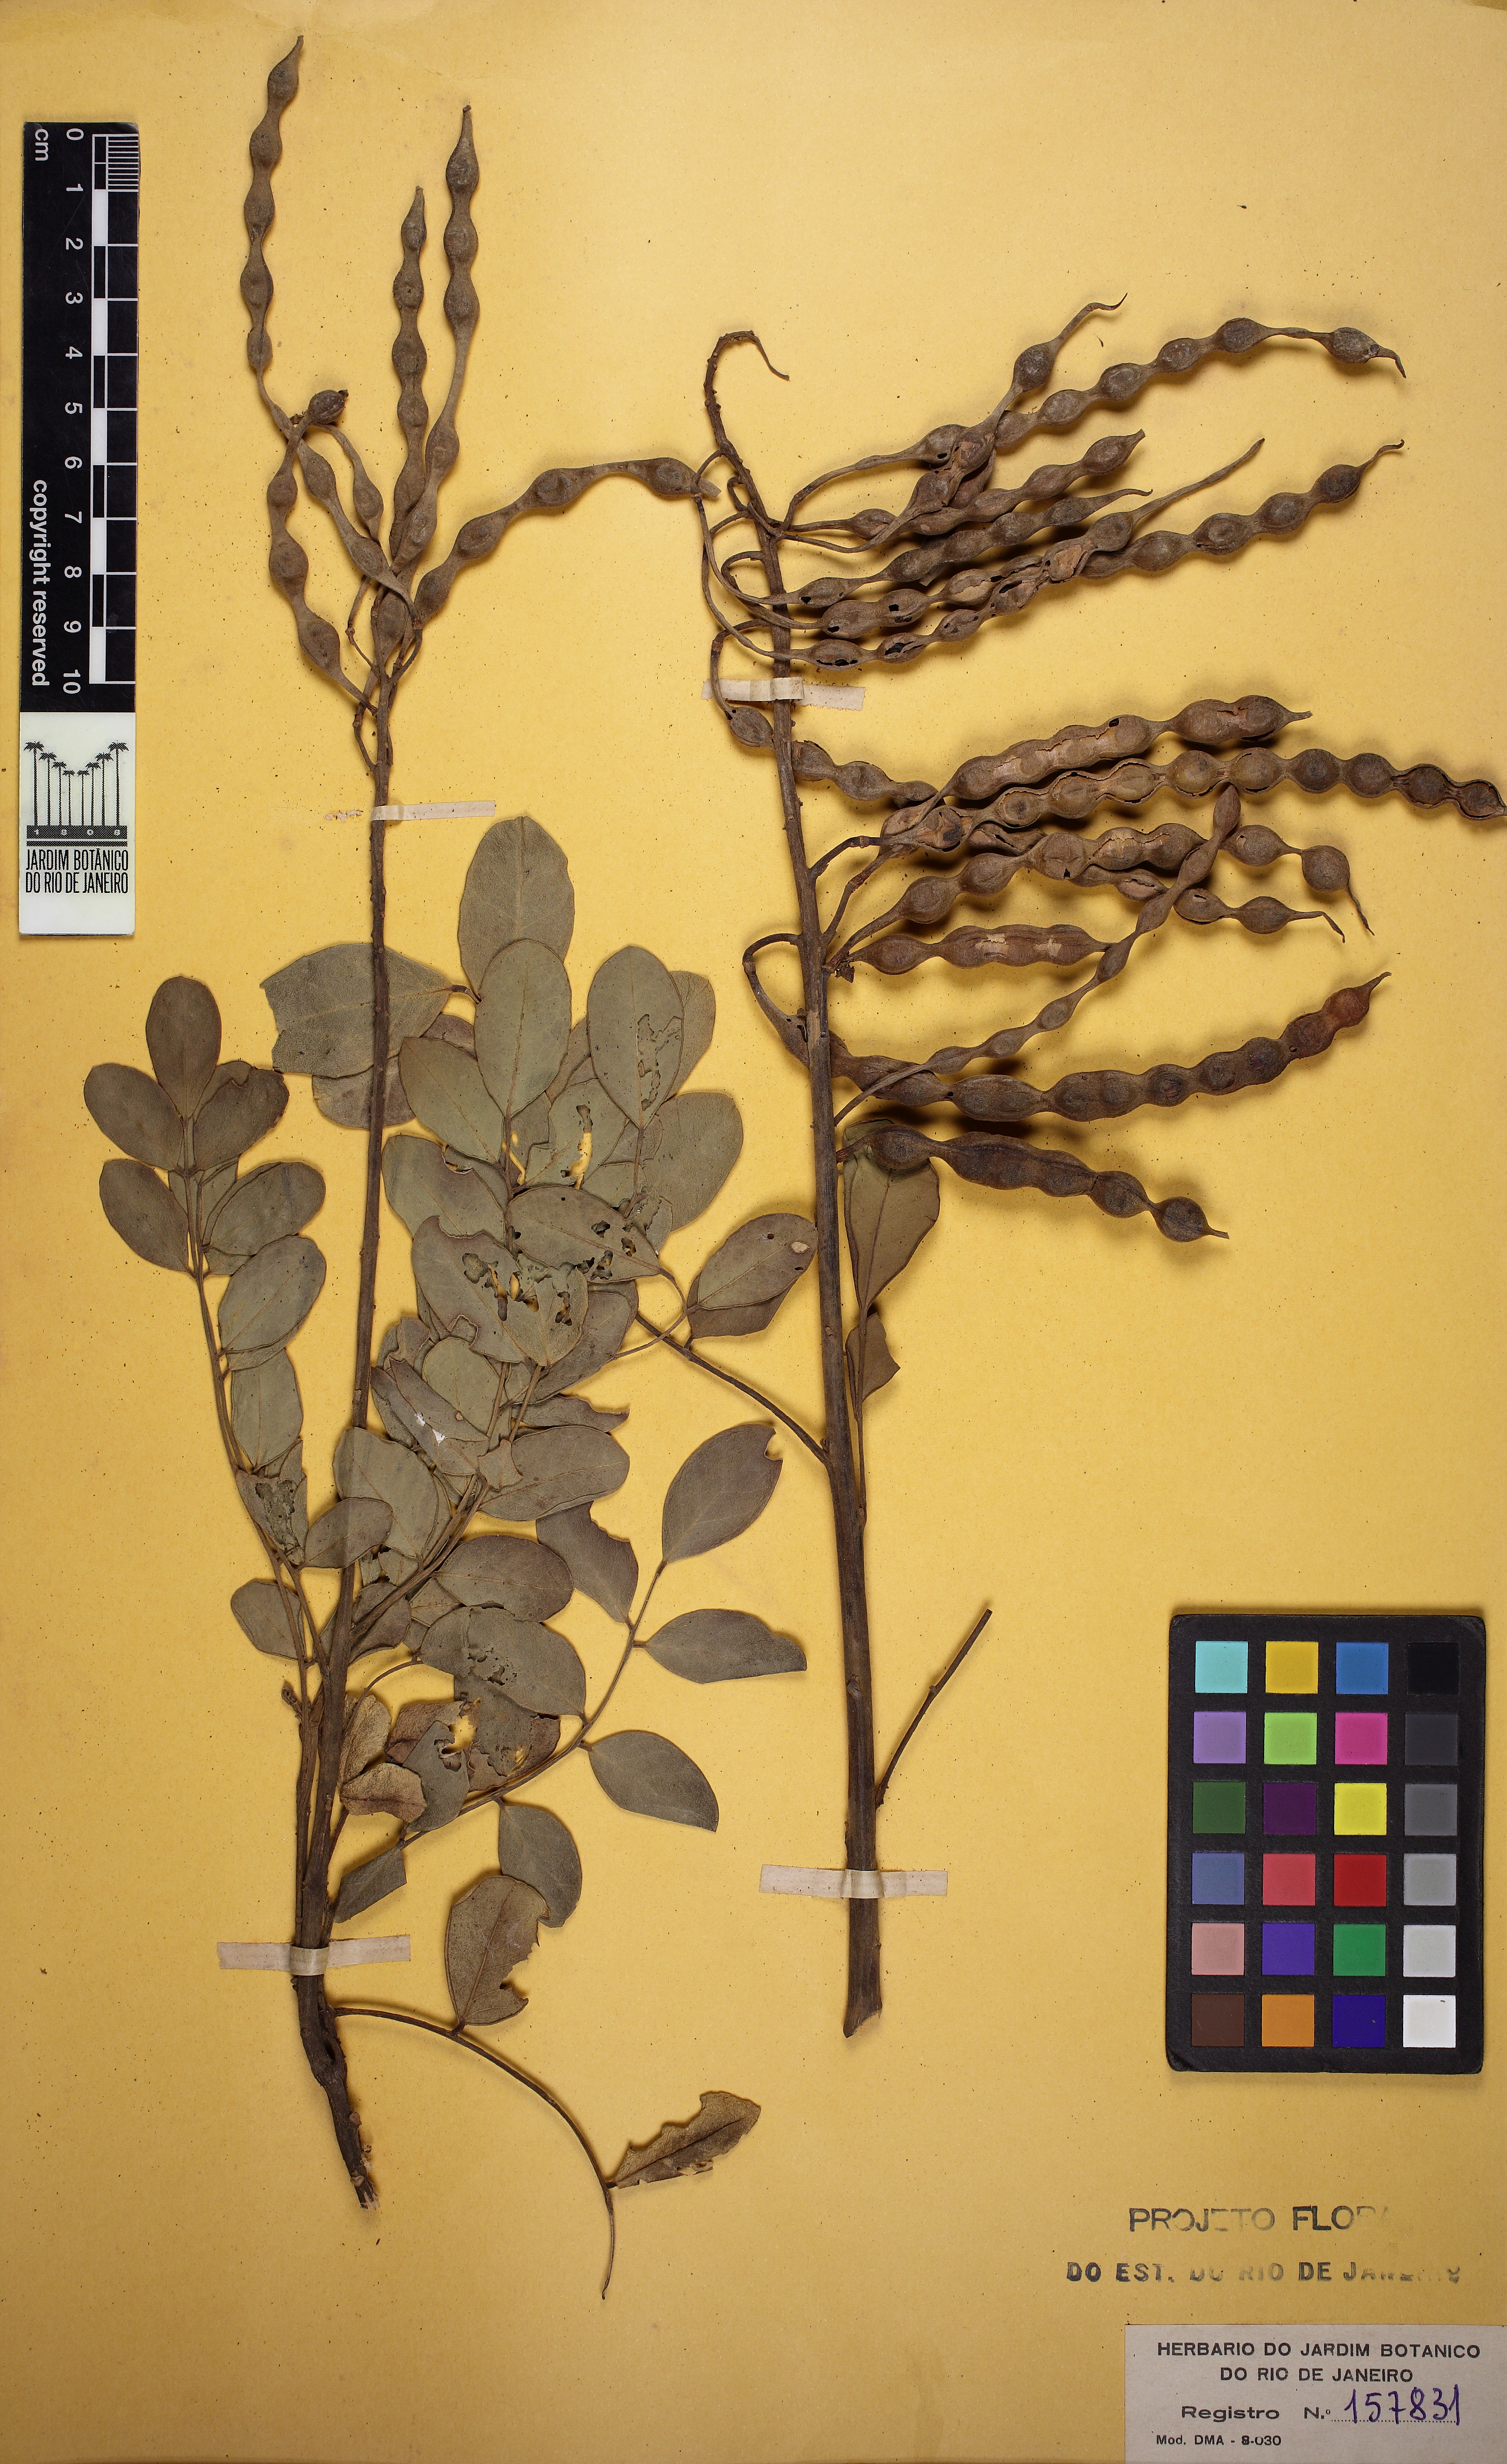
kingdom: Plantae
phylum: Tracheophyta
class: Magnoliopsida
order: Fabales
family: Fabaceae
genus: Sophora
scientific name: Sophora tomentosa
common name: Yellow necklacepod
